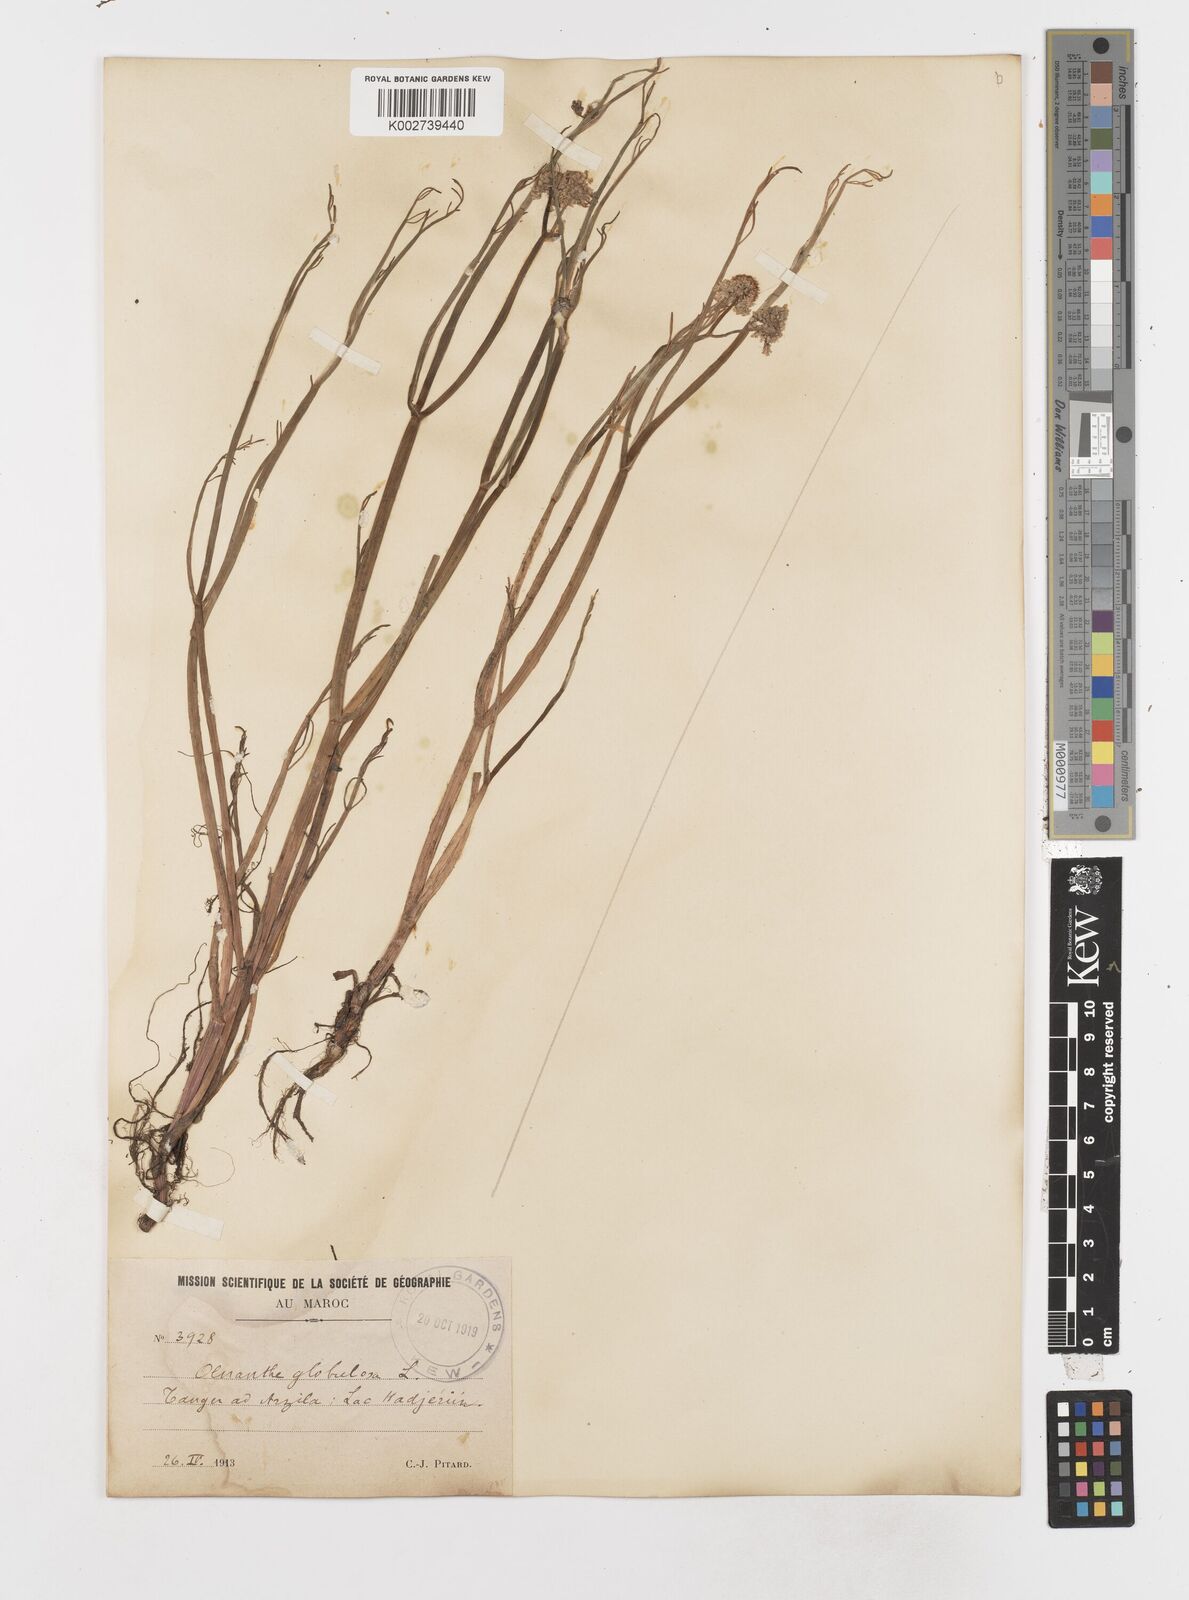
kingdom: Plantae
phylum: Tracheophyta
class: Magnoliopsida
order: Apiales
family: Apiaceae
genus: Oenanthe
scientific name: Oenanthe globulosa
